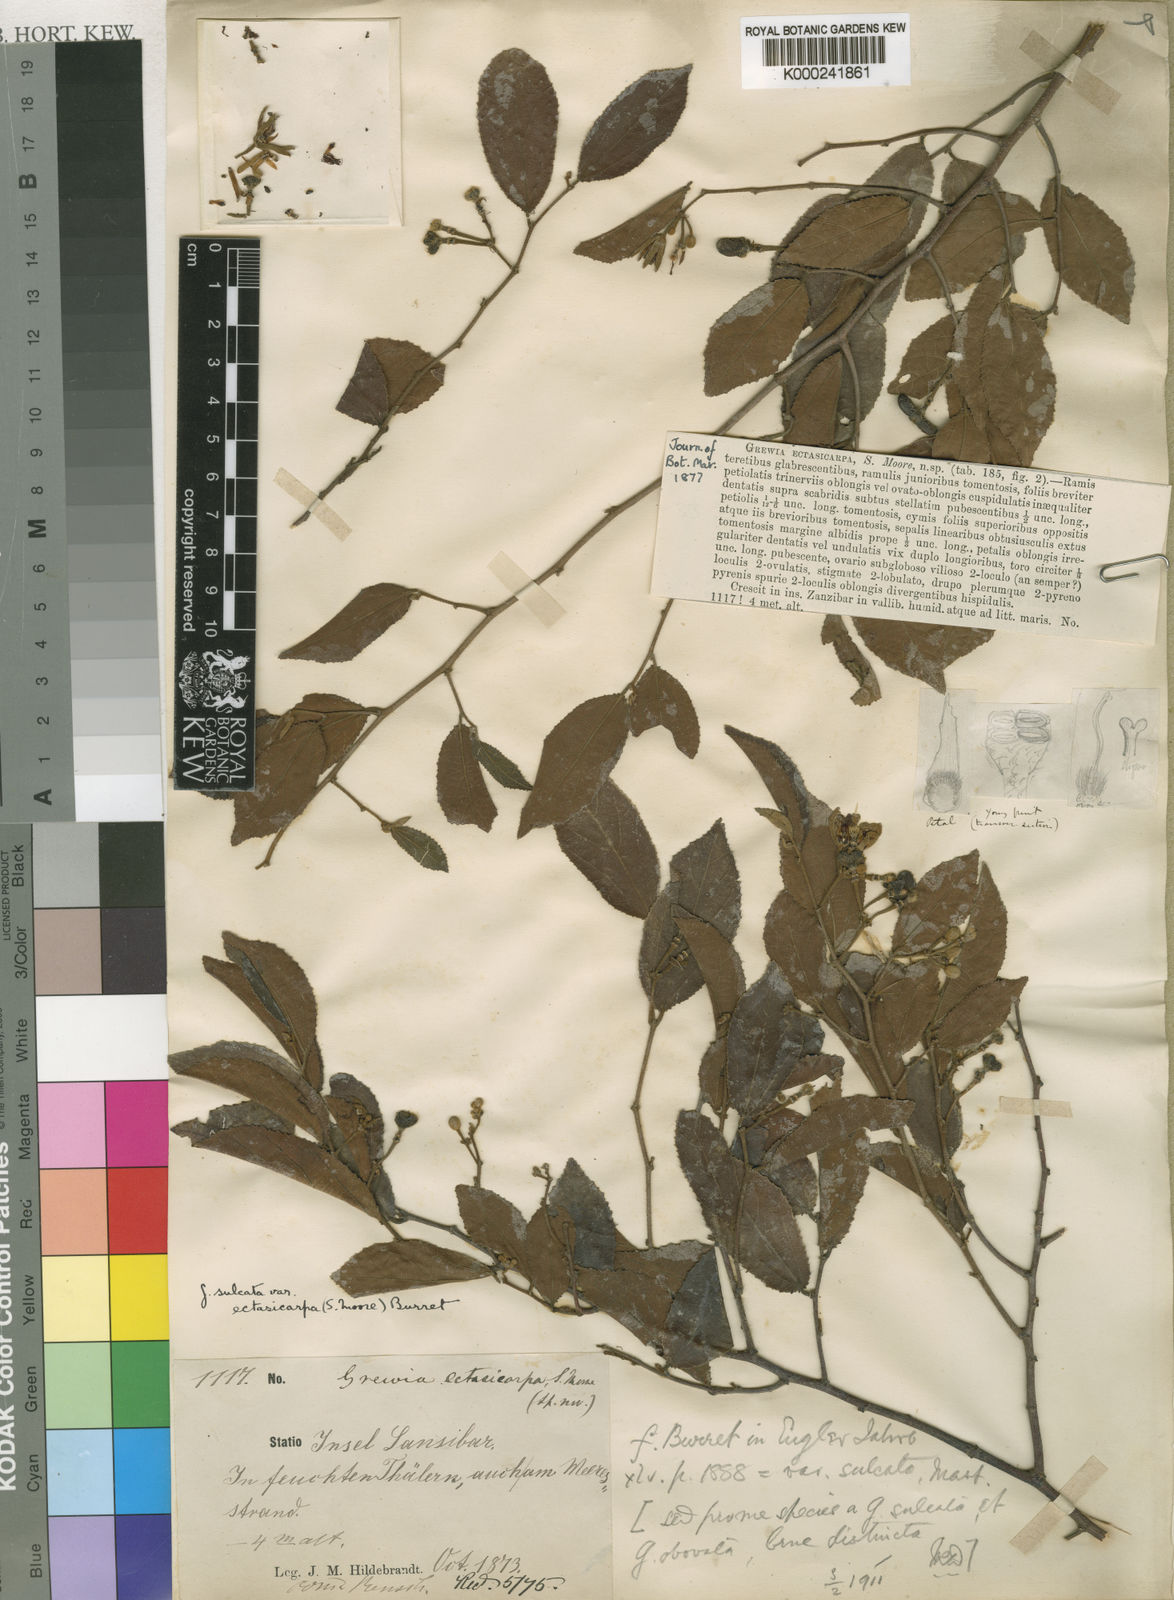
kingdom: Plantae
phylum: Tracheophyta
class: Magnoliopsida
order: Malvales
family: Malvaceae
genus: Grewia
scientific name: Grewia capitellata
